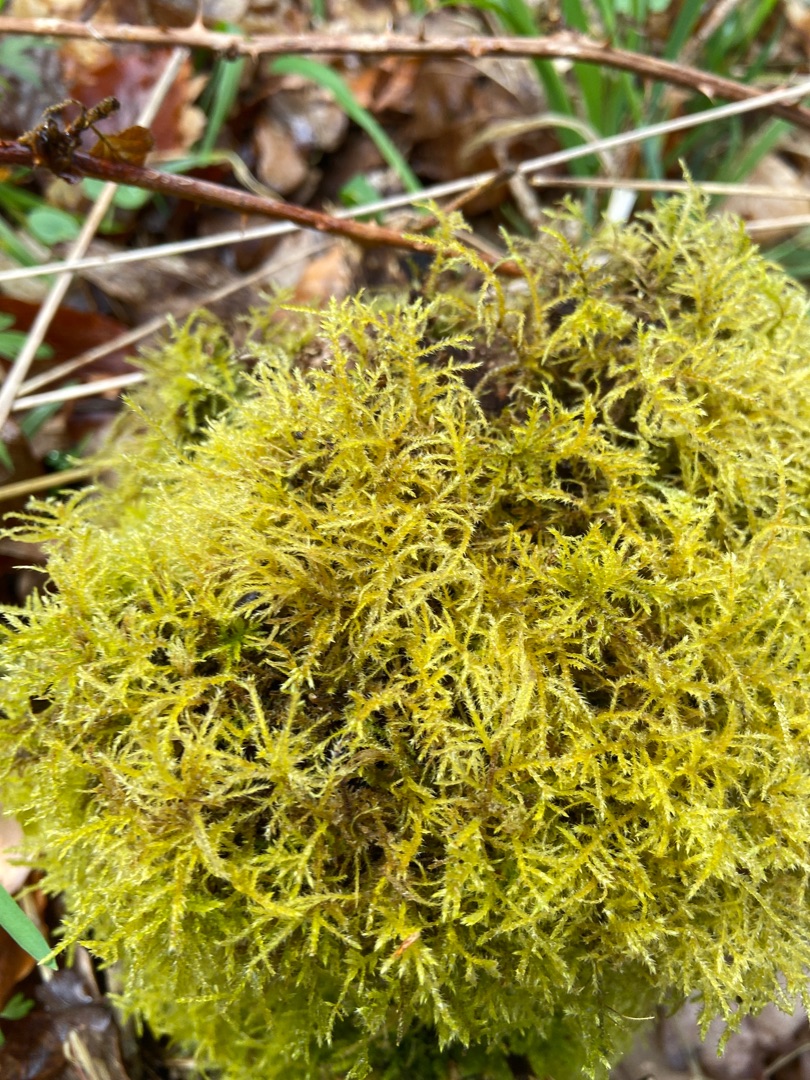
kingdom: Plantae
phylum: Bryophyta
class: Bryopsida
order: Hypnales
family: Brachytheciaceae
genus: Kindbergia
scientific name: Kindbergia praelonga
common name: Forskelligbladet vortetand
